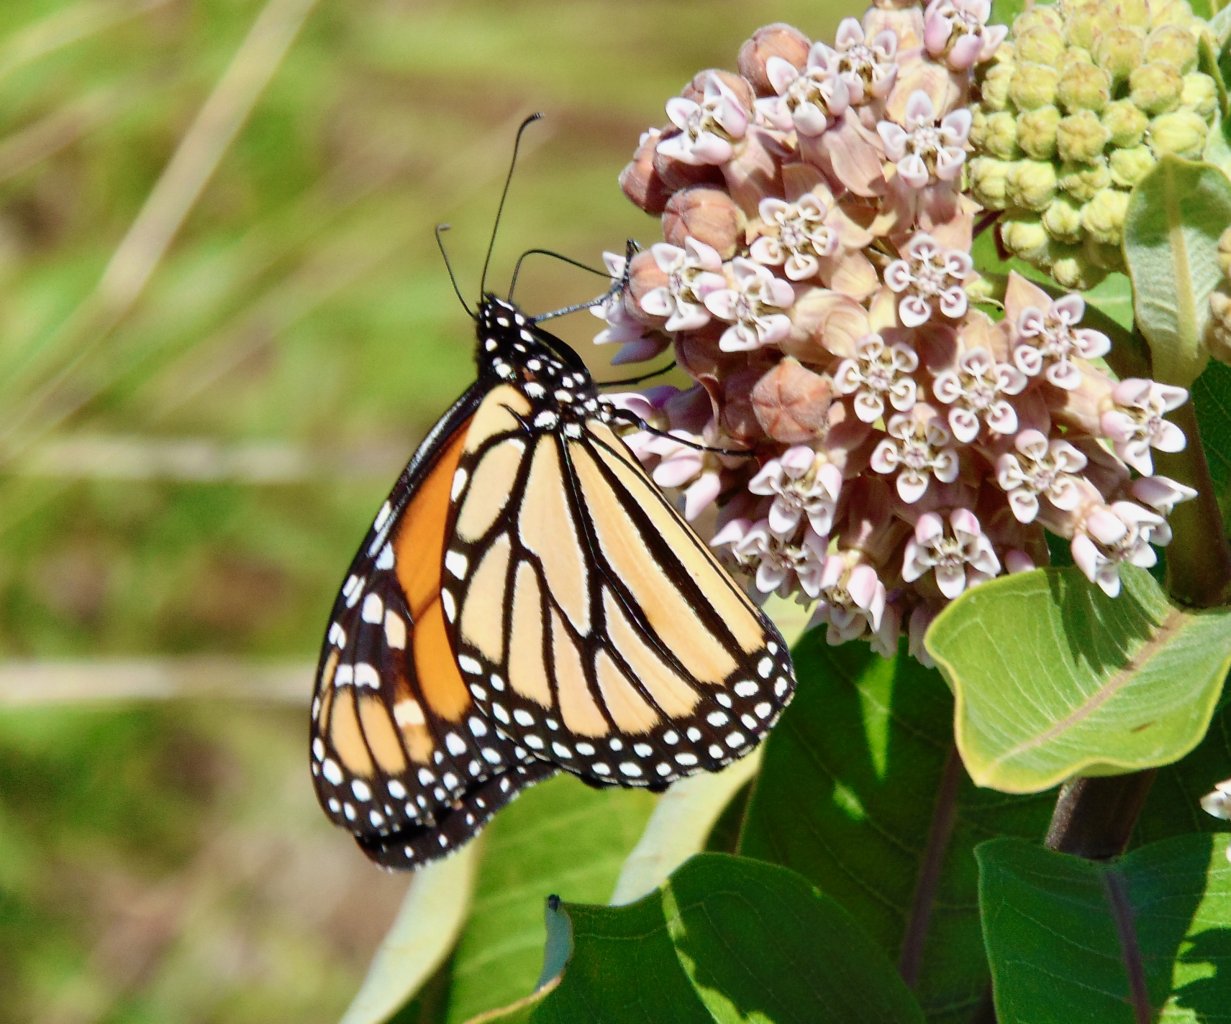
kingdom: Animalia
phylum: Arthropoda
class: Insecta
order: Lepidoptera
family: Nymphalidae
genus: Danaus
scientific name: Danaus plexippus
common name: Monarch
